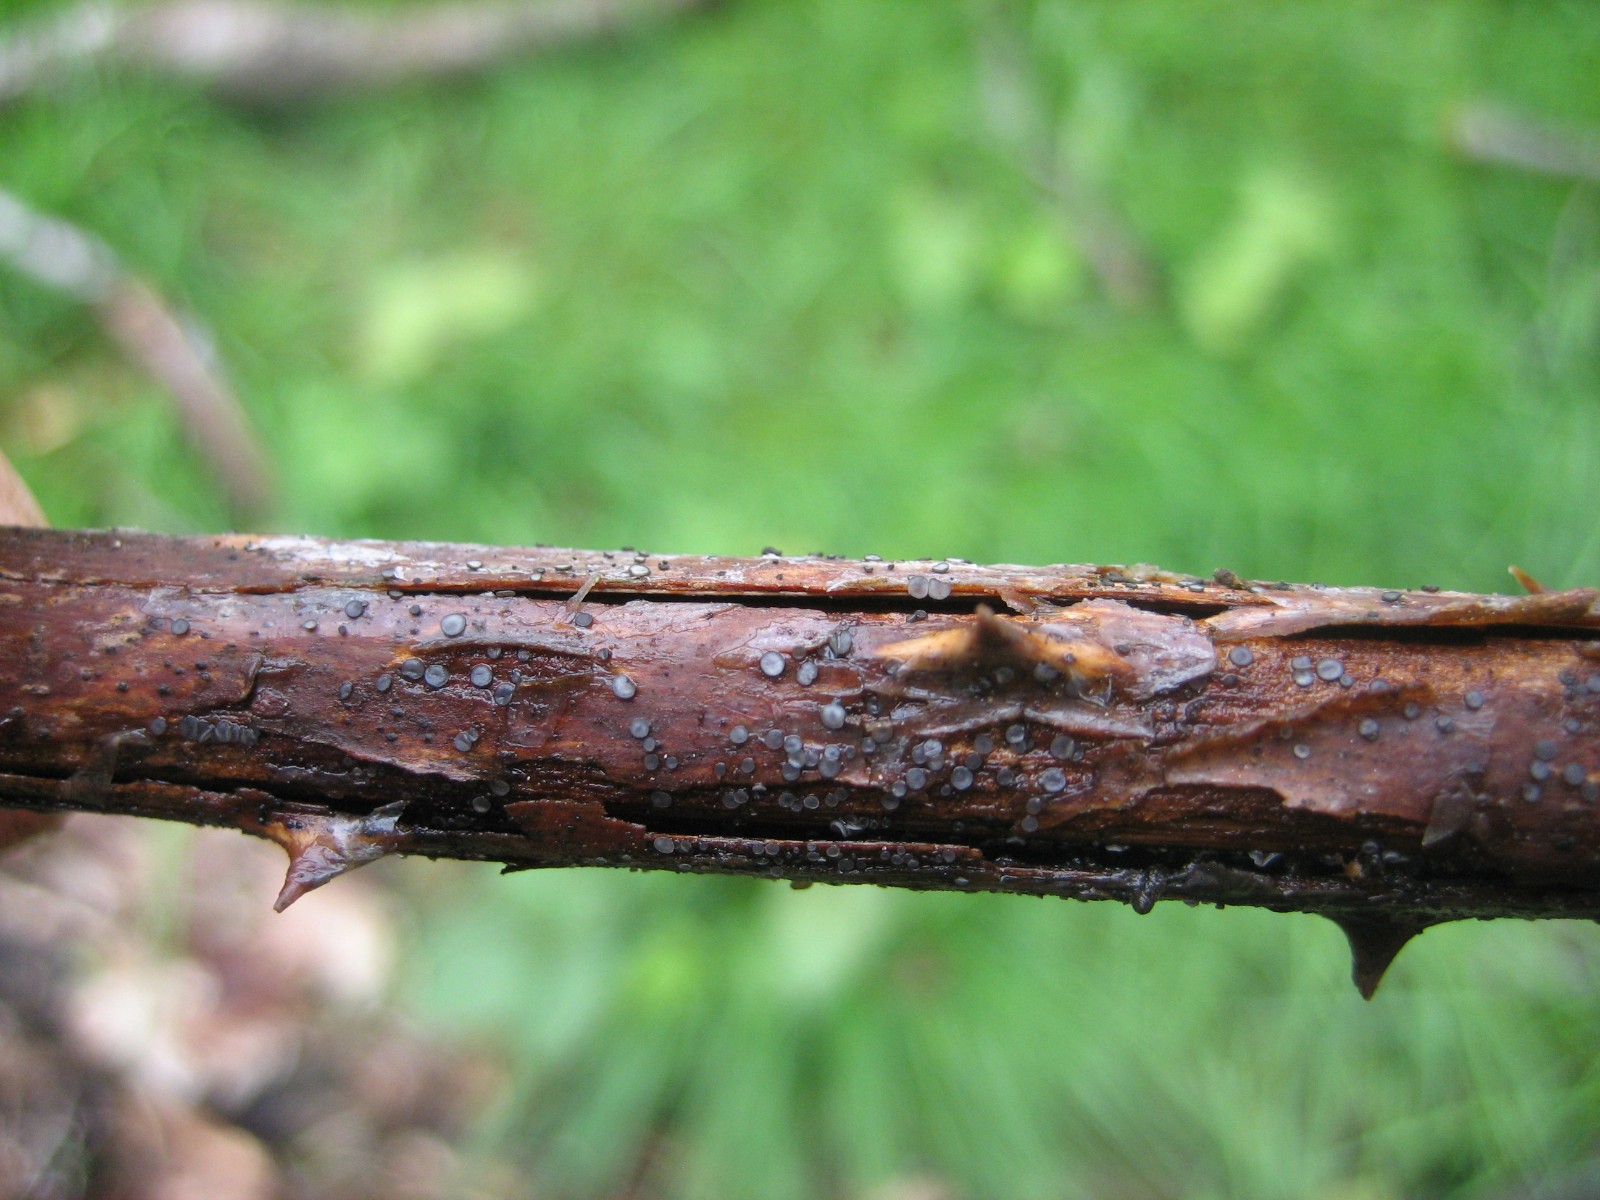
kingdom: Fungi
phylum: Ascomycota
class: Leotiomycetes
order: Helotiales
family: Mollisiaceae
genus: Mollisia
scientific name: Mollisia
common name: gråskive
